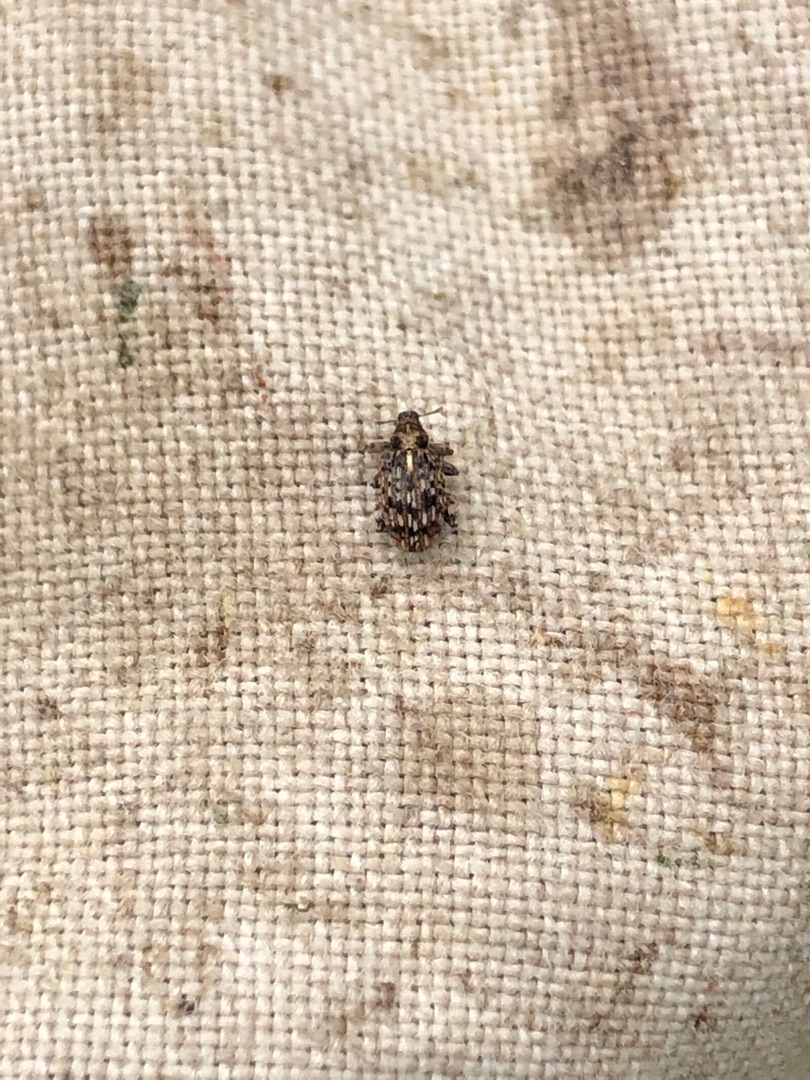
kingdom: Animalia
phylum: Arthropoda
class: Insecta
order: Coleoptera
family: Curculionidae
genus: Orchestes
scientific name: Orchestes pilosus
